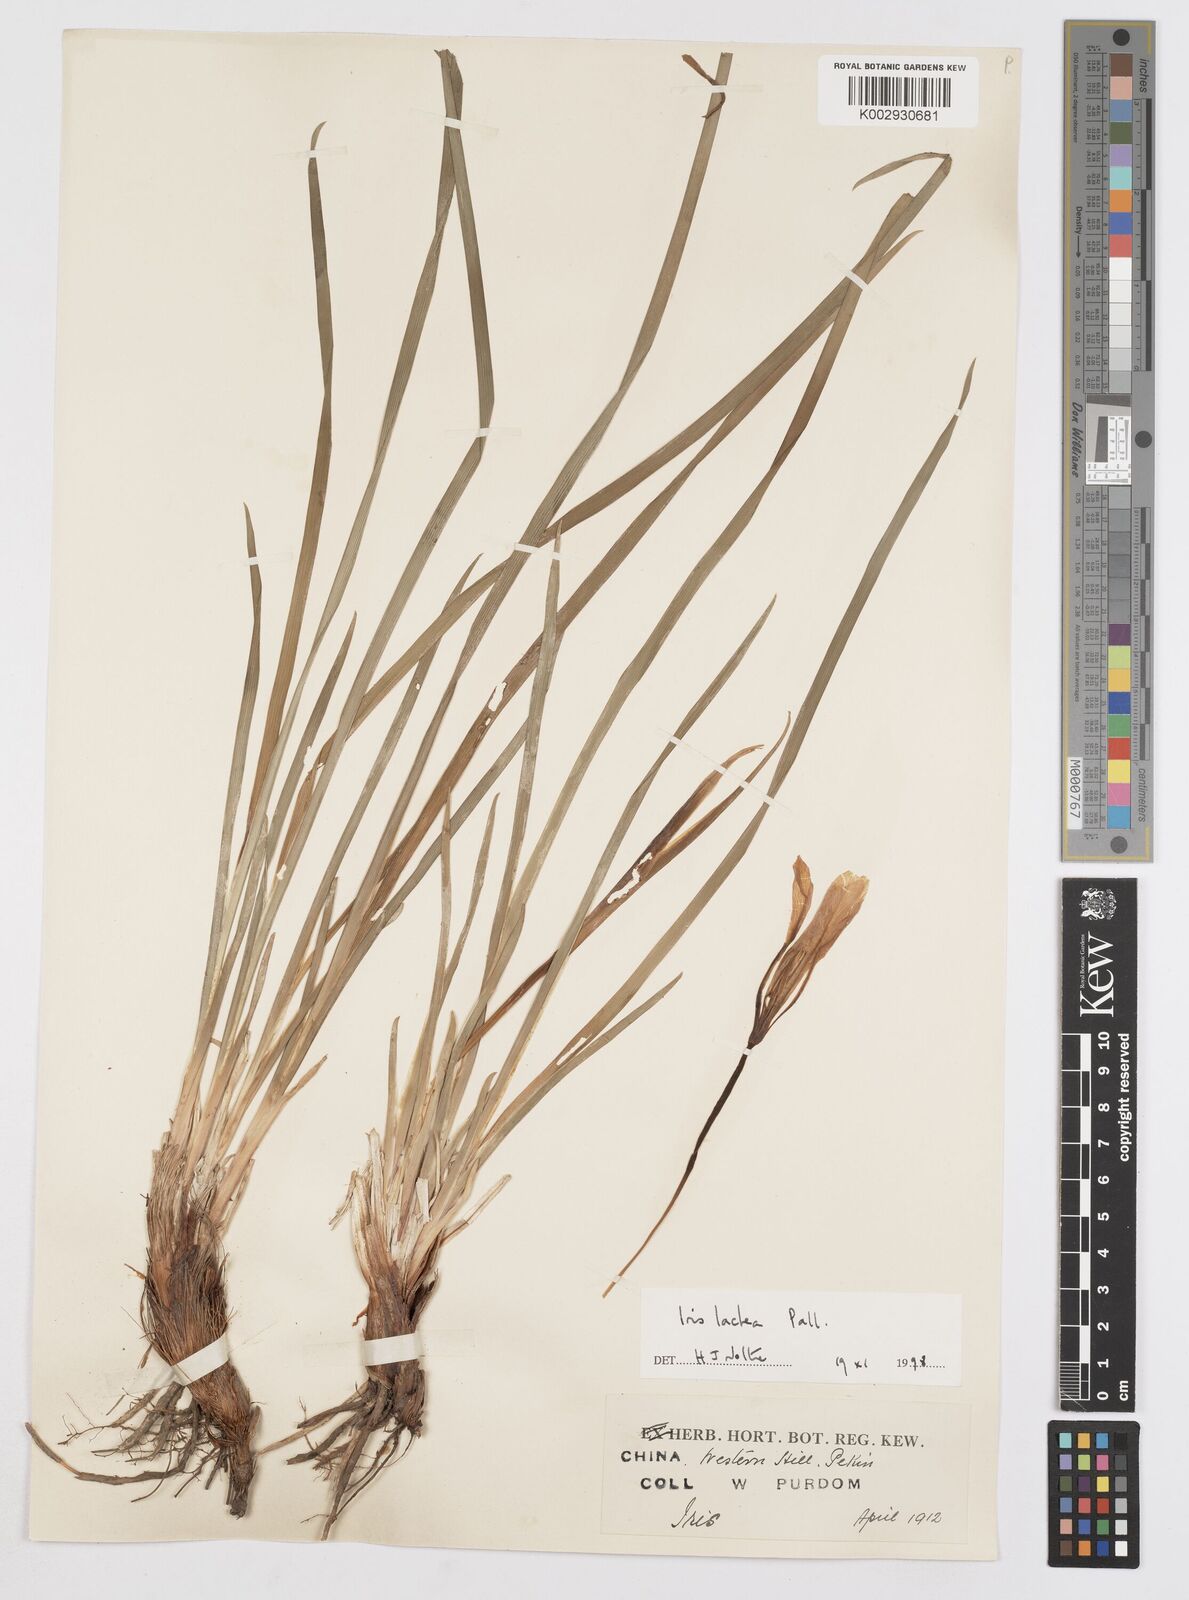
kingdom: Plantae
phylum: Tracheophyta
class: Liliopsida
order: Asparagales
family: Iridaceae
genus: Iris
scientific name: Iris ensata
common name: Beaked iris
